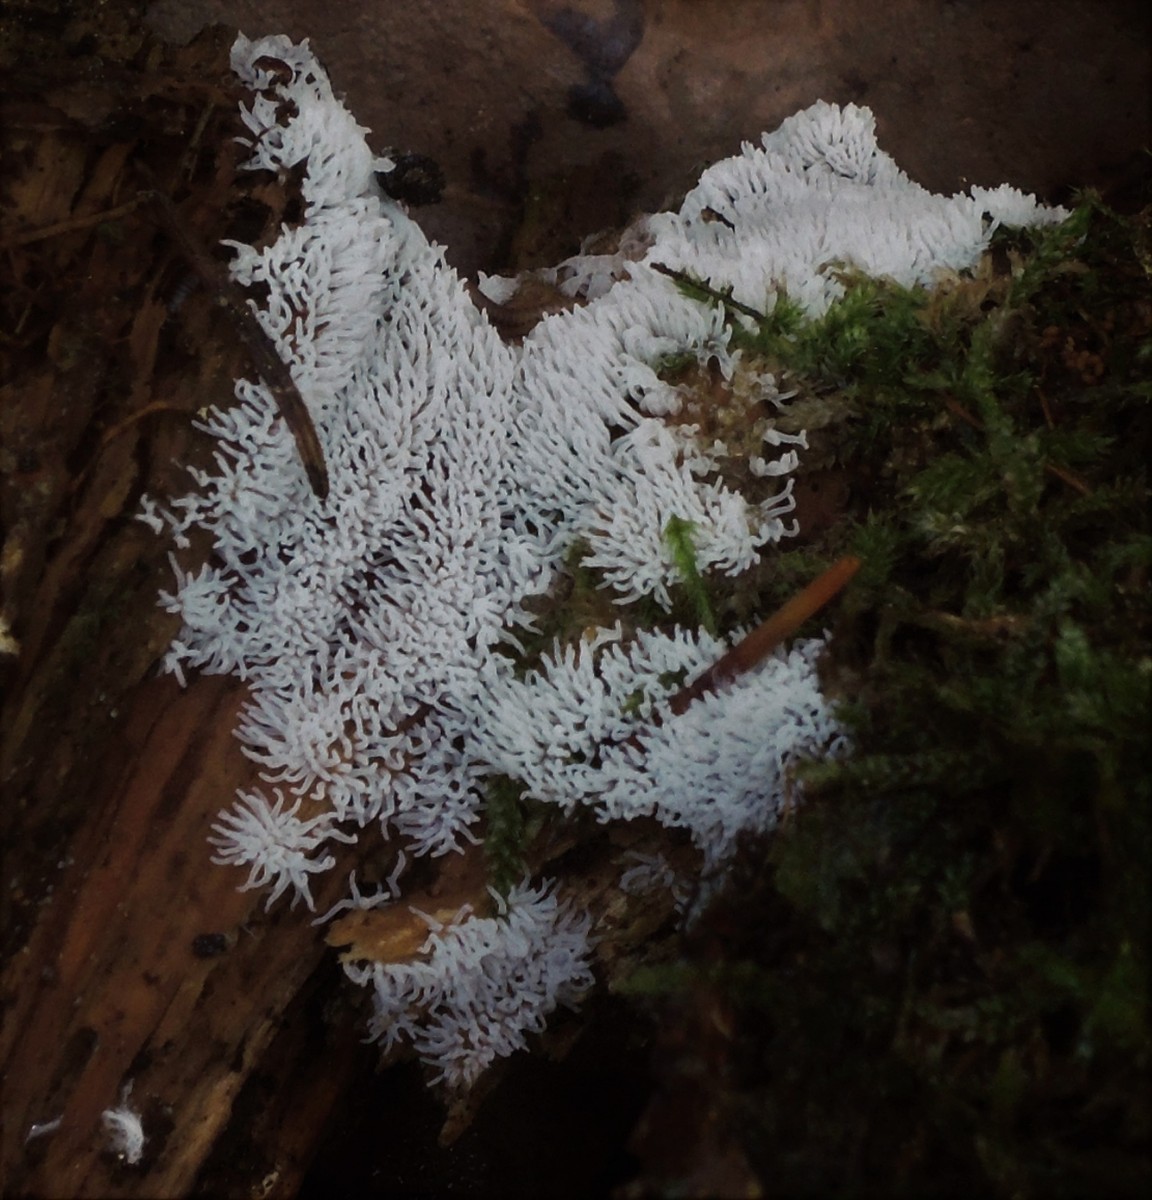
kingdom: Protozoa
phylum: Mycetozoa
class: Protosteliomycetes
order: Ceratiomyxales
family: Ceratiomyxaceae
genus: Ceratiomyxa
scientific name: Ceratiomyxa fruticulosa
